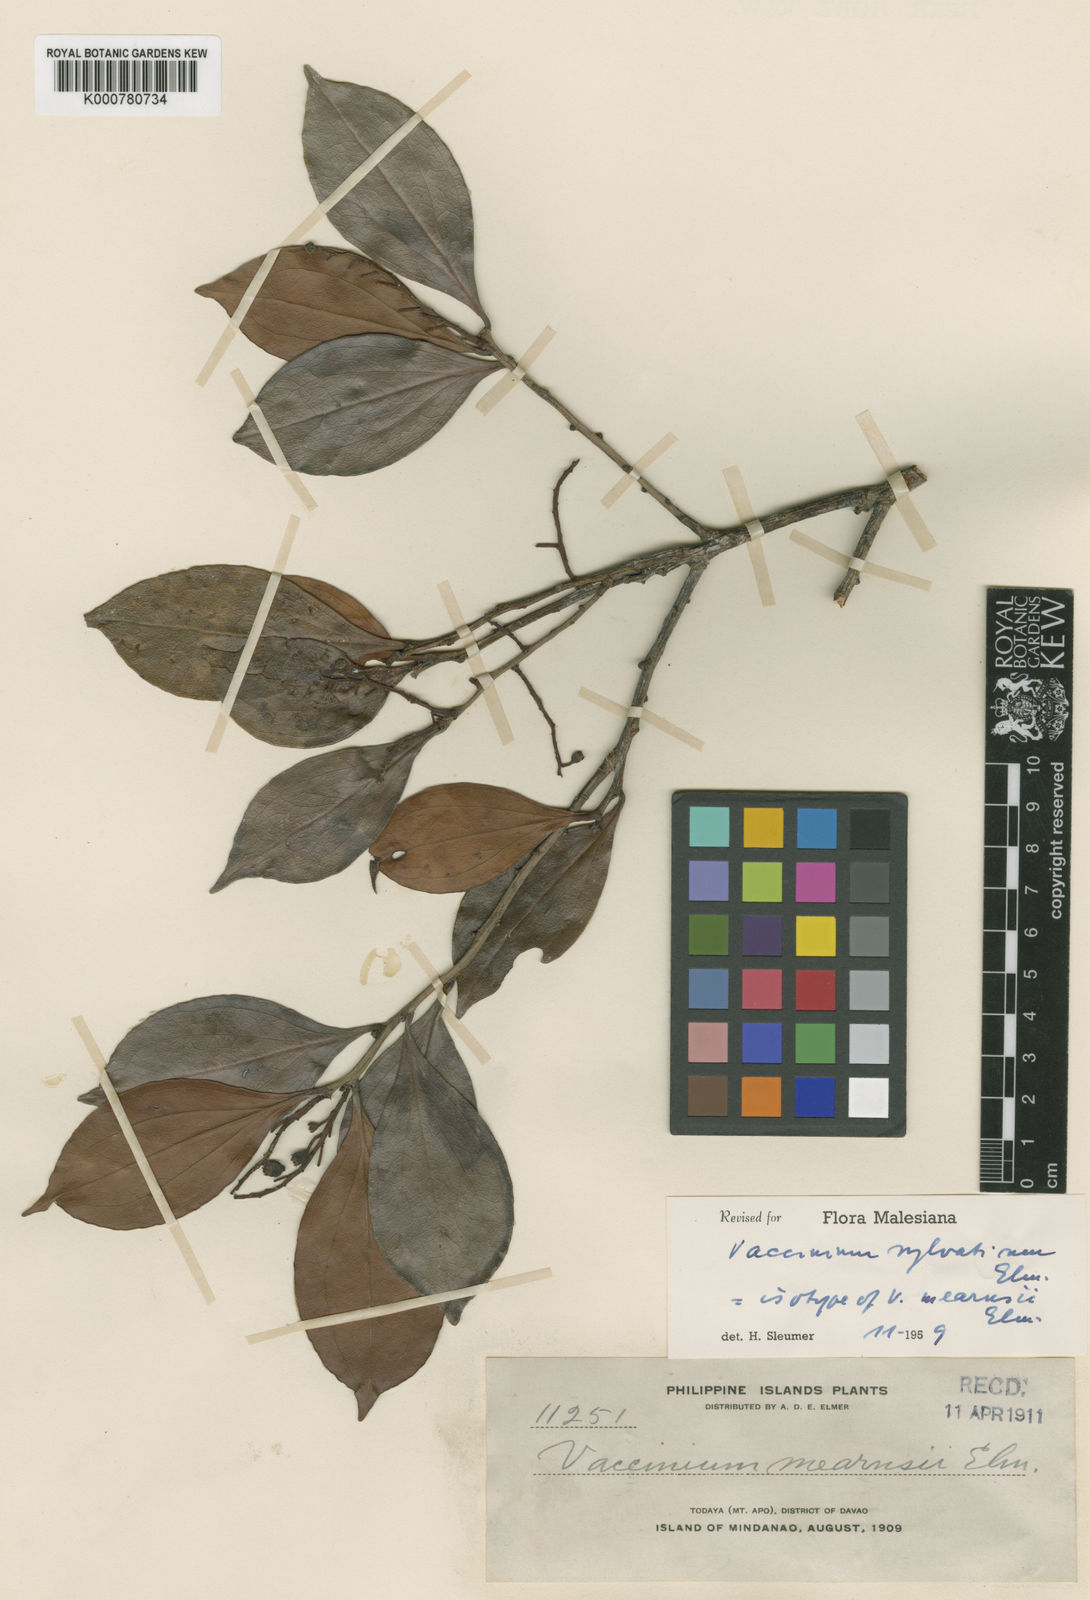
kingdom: Plantae
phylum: Tracheophyta
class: Magnoliopsida
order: Ericales
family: Ericaceae
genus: Vaccinium
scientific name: Vaccinium sylvaticum
